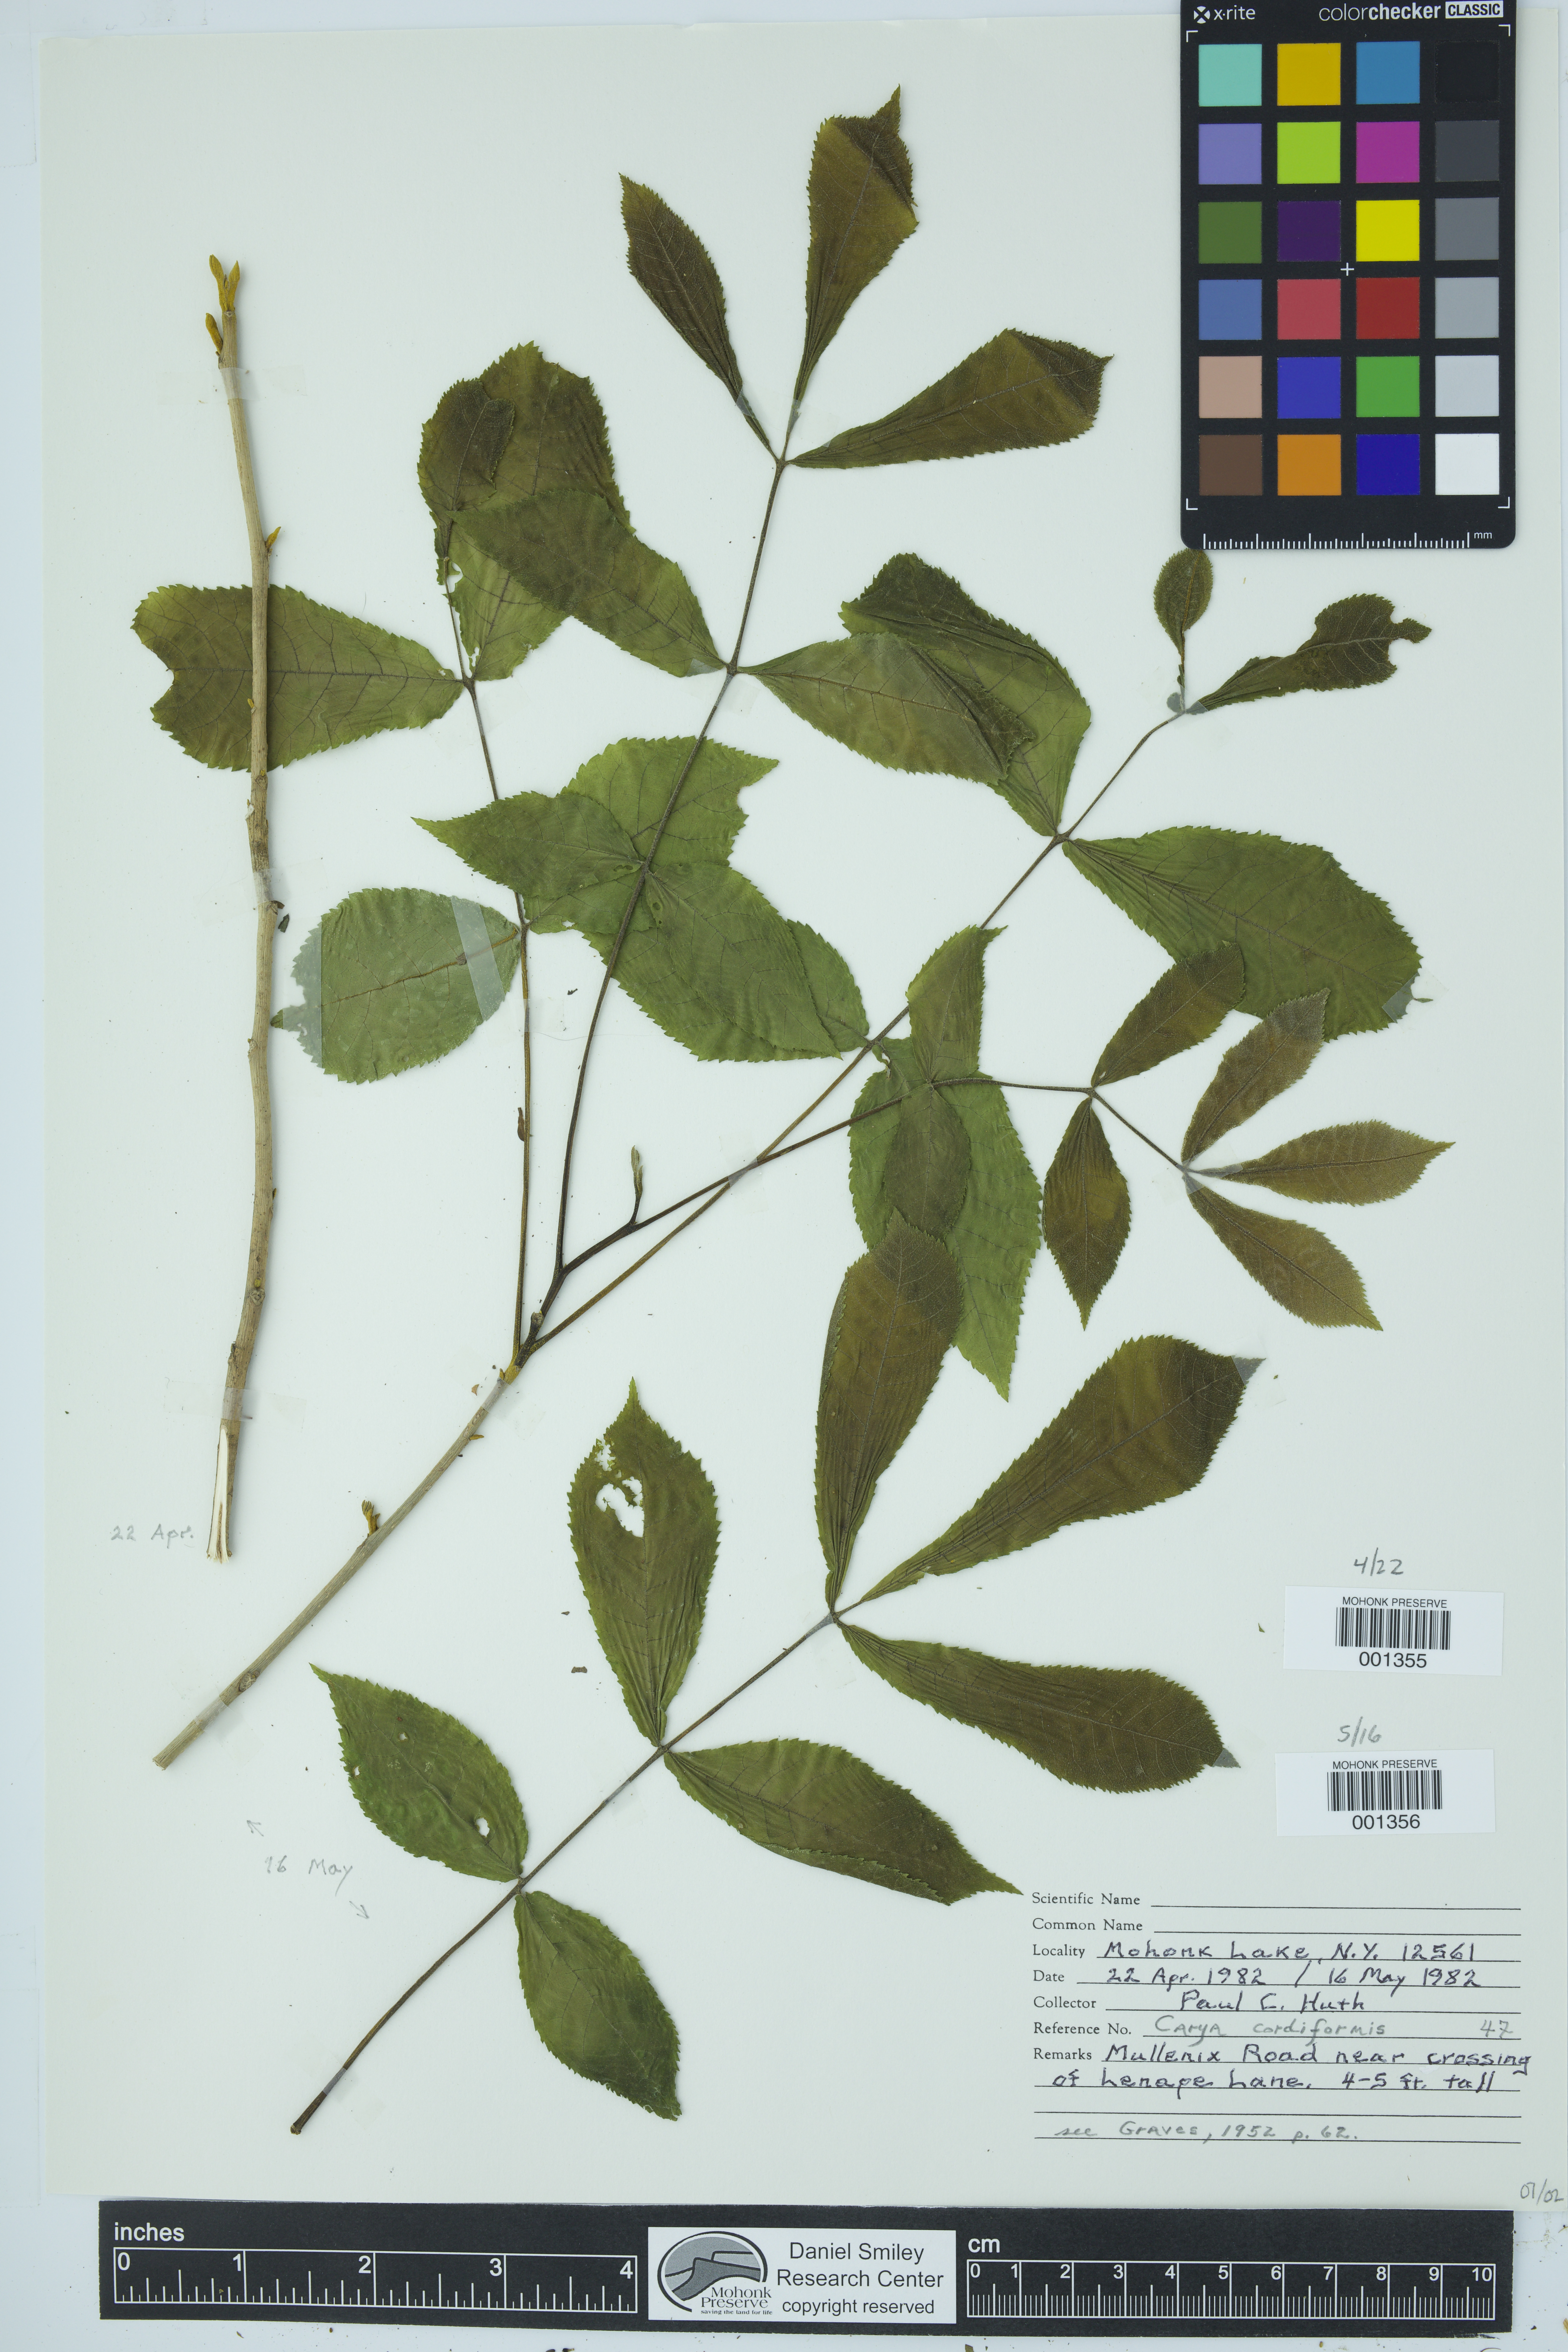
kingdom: Plantae
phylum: Tracheophyta
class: Magnoliopsida
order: Fagales
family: Juglandaceae
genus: Carya
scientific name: Carya cordiformis
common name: Bitternut hickory
